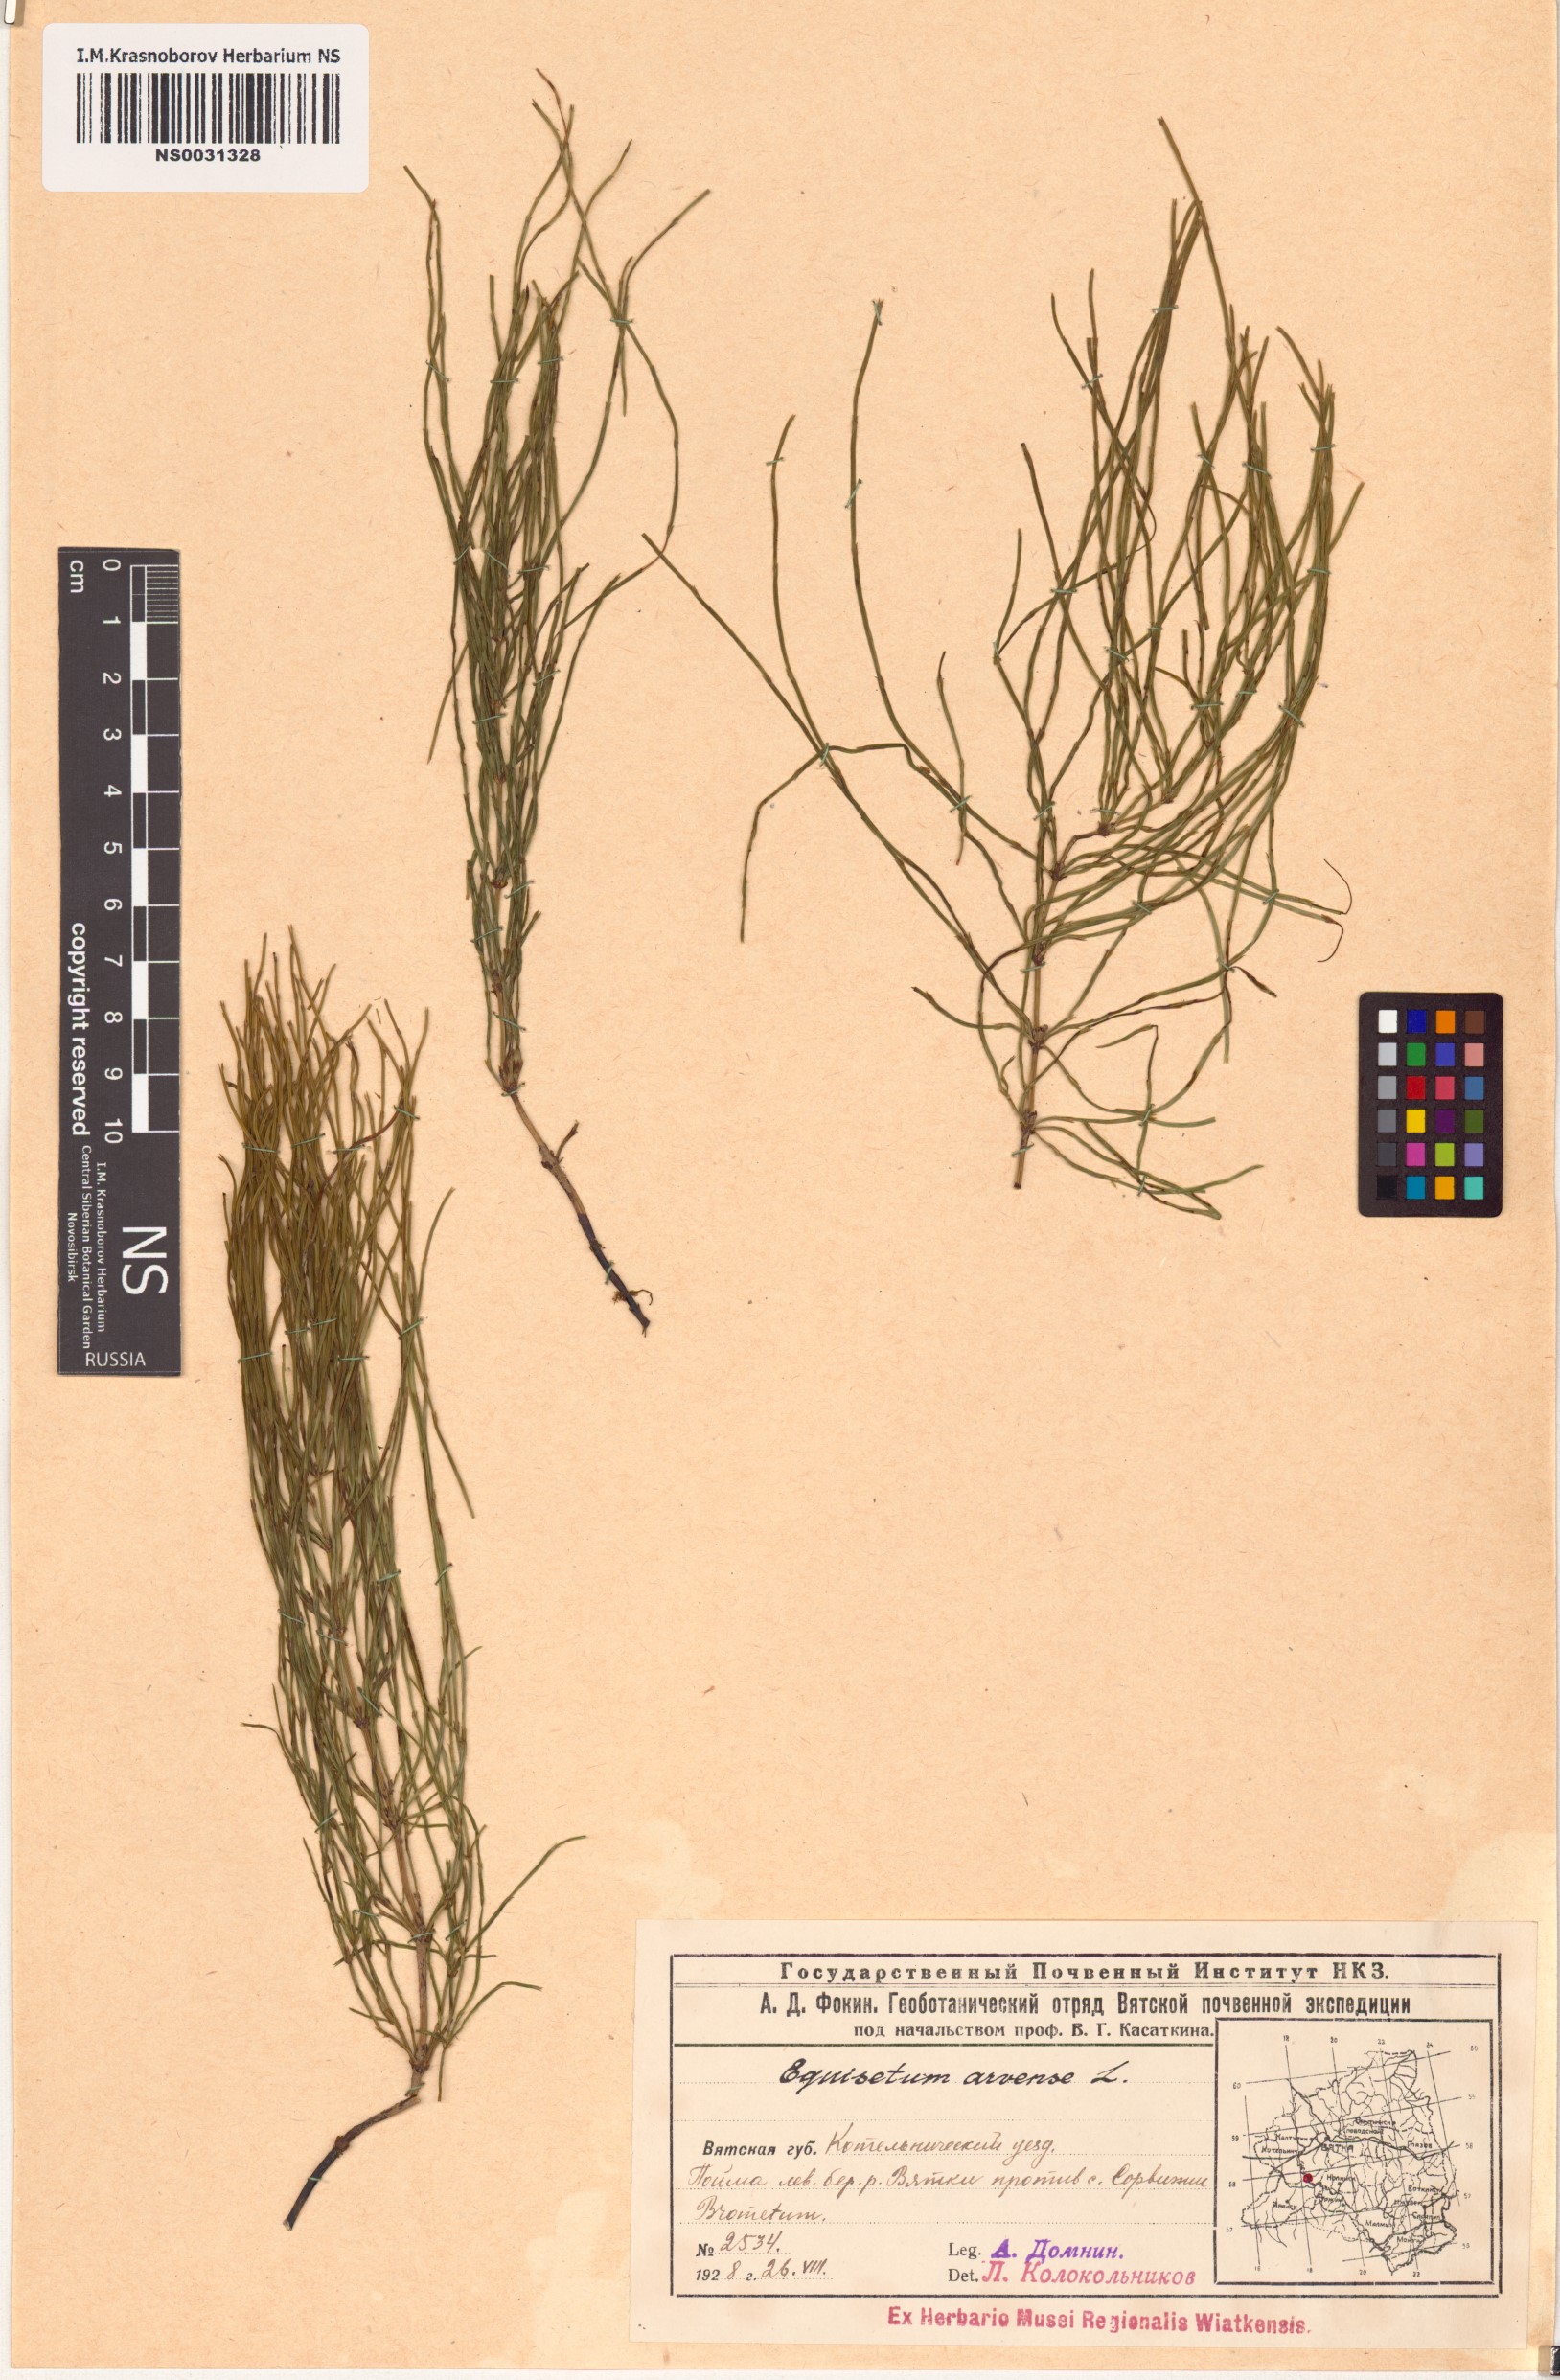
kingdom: Plantae
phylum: Tracheophyta
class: Polypodiopsida
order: Equisetales
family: Equisetaceae
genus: Equisetum
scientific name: Equisetum arvense
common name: Field horsetail
